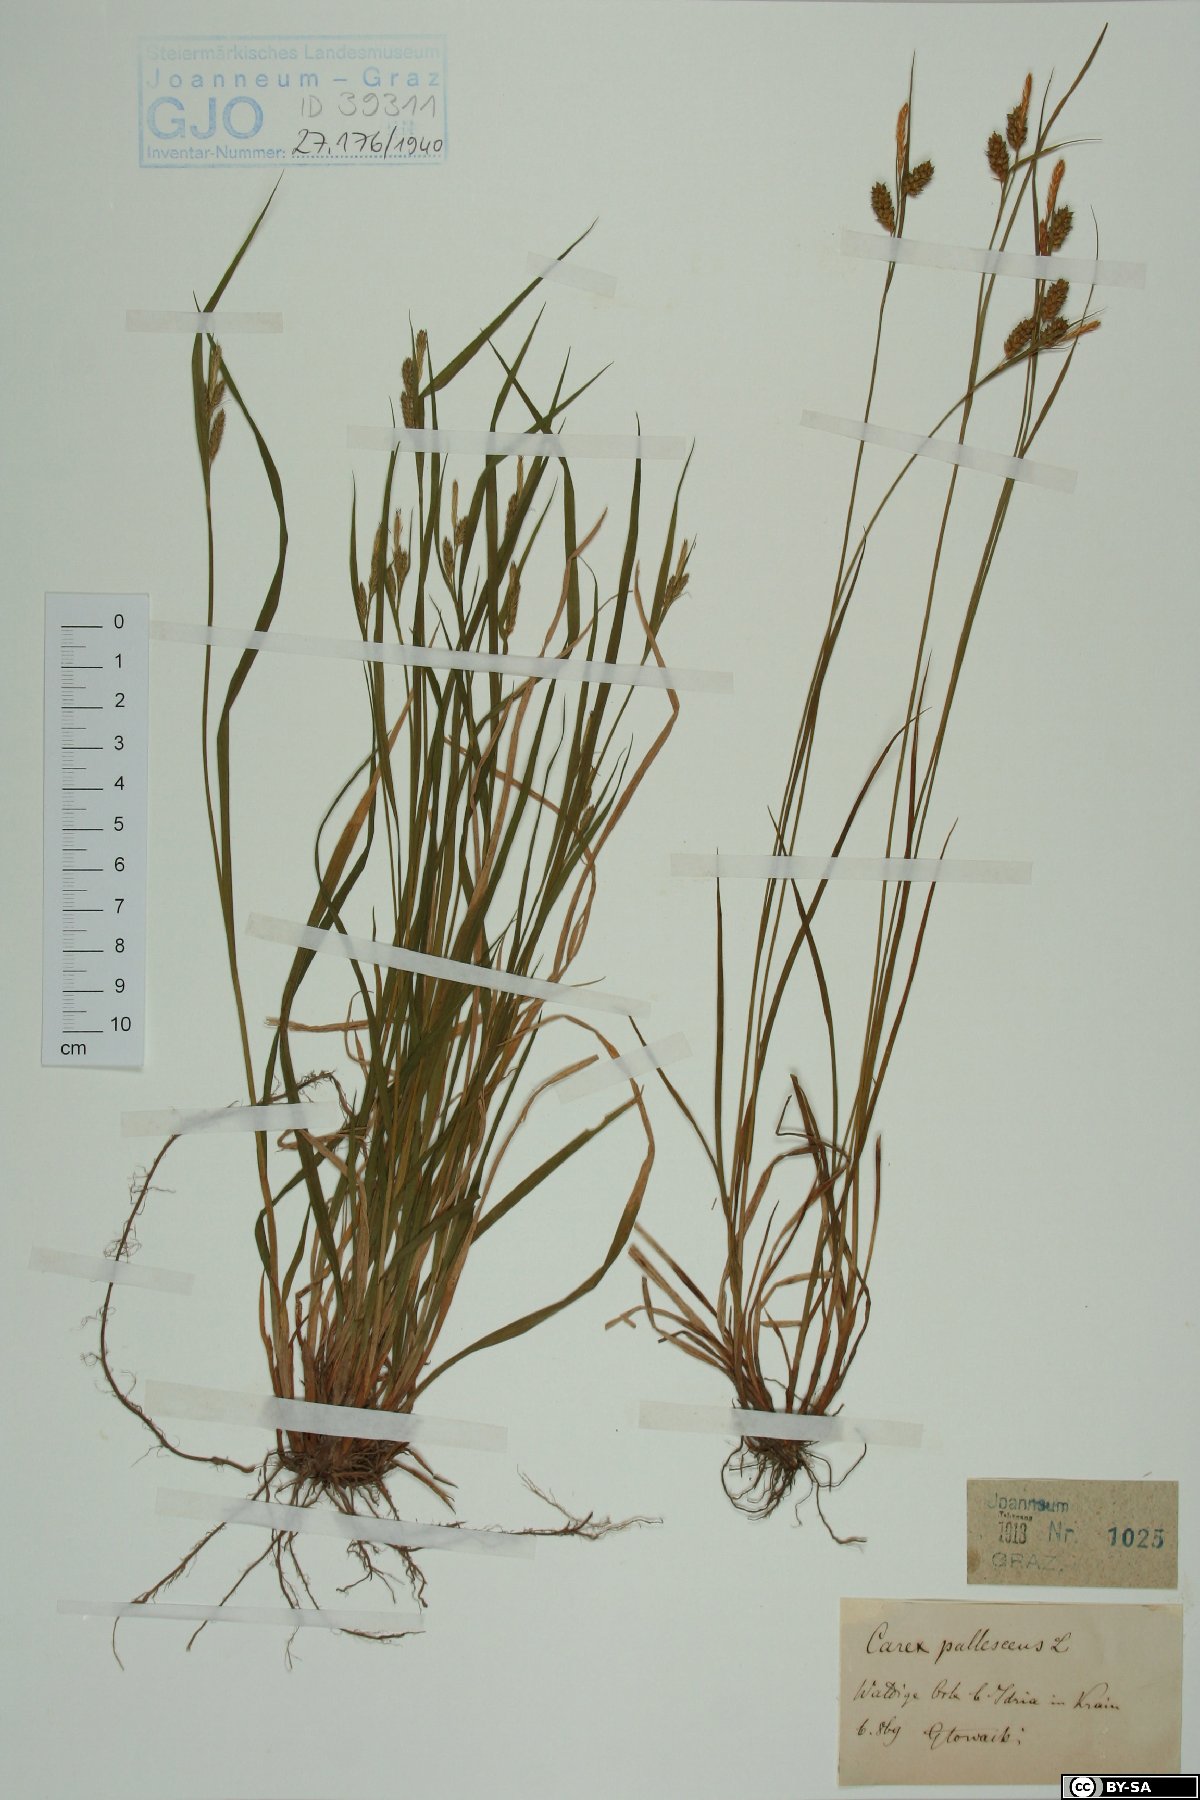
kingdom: Plantae
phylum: Tracheophyta
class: Liliopsida
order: Poales
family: Cyperaceae
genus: Carex
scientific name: Carex pallescens
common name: Pale sedge
